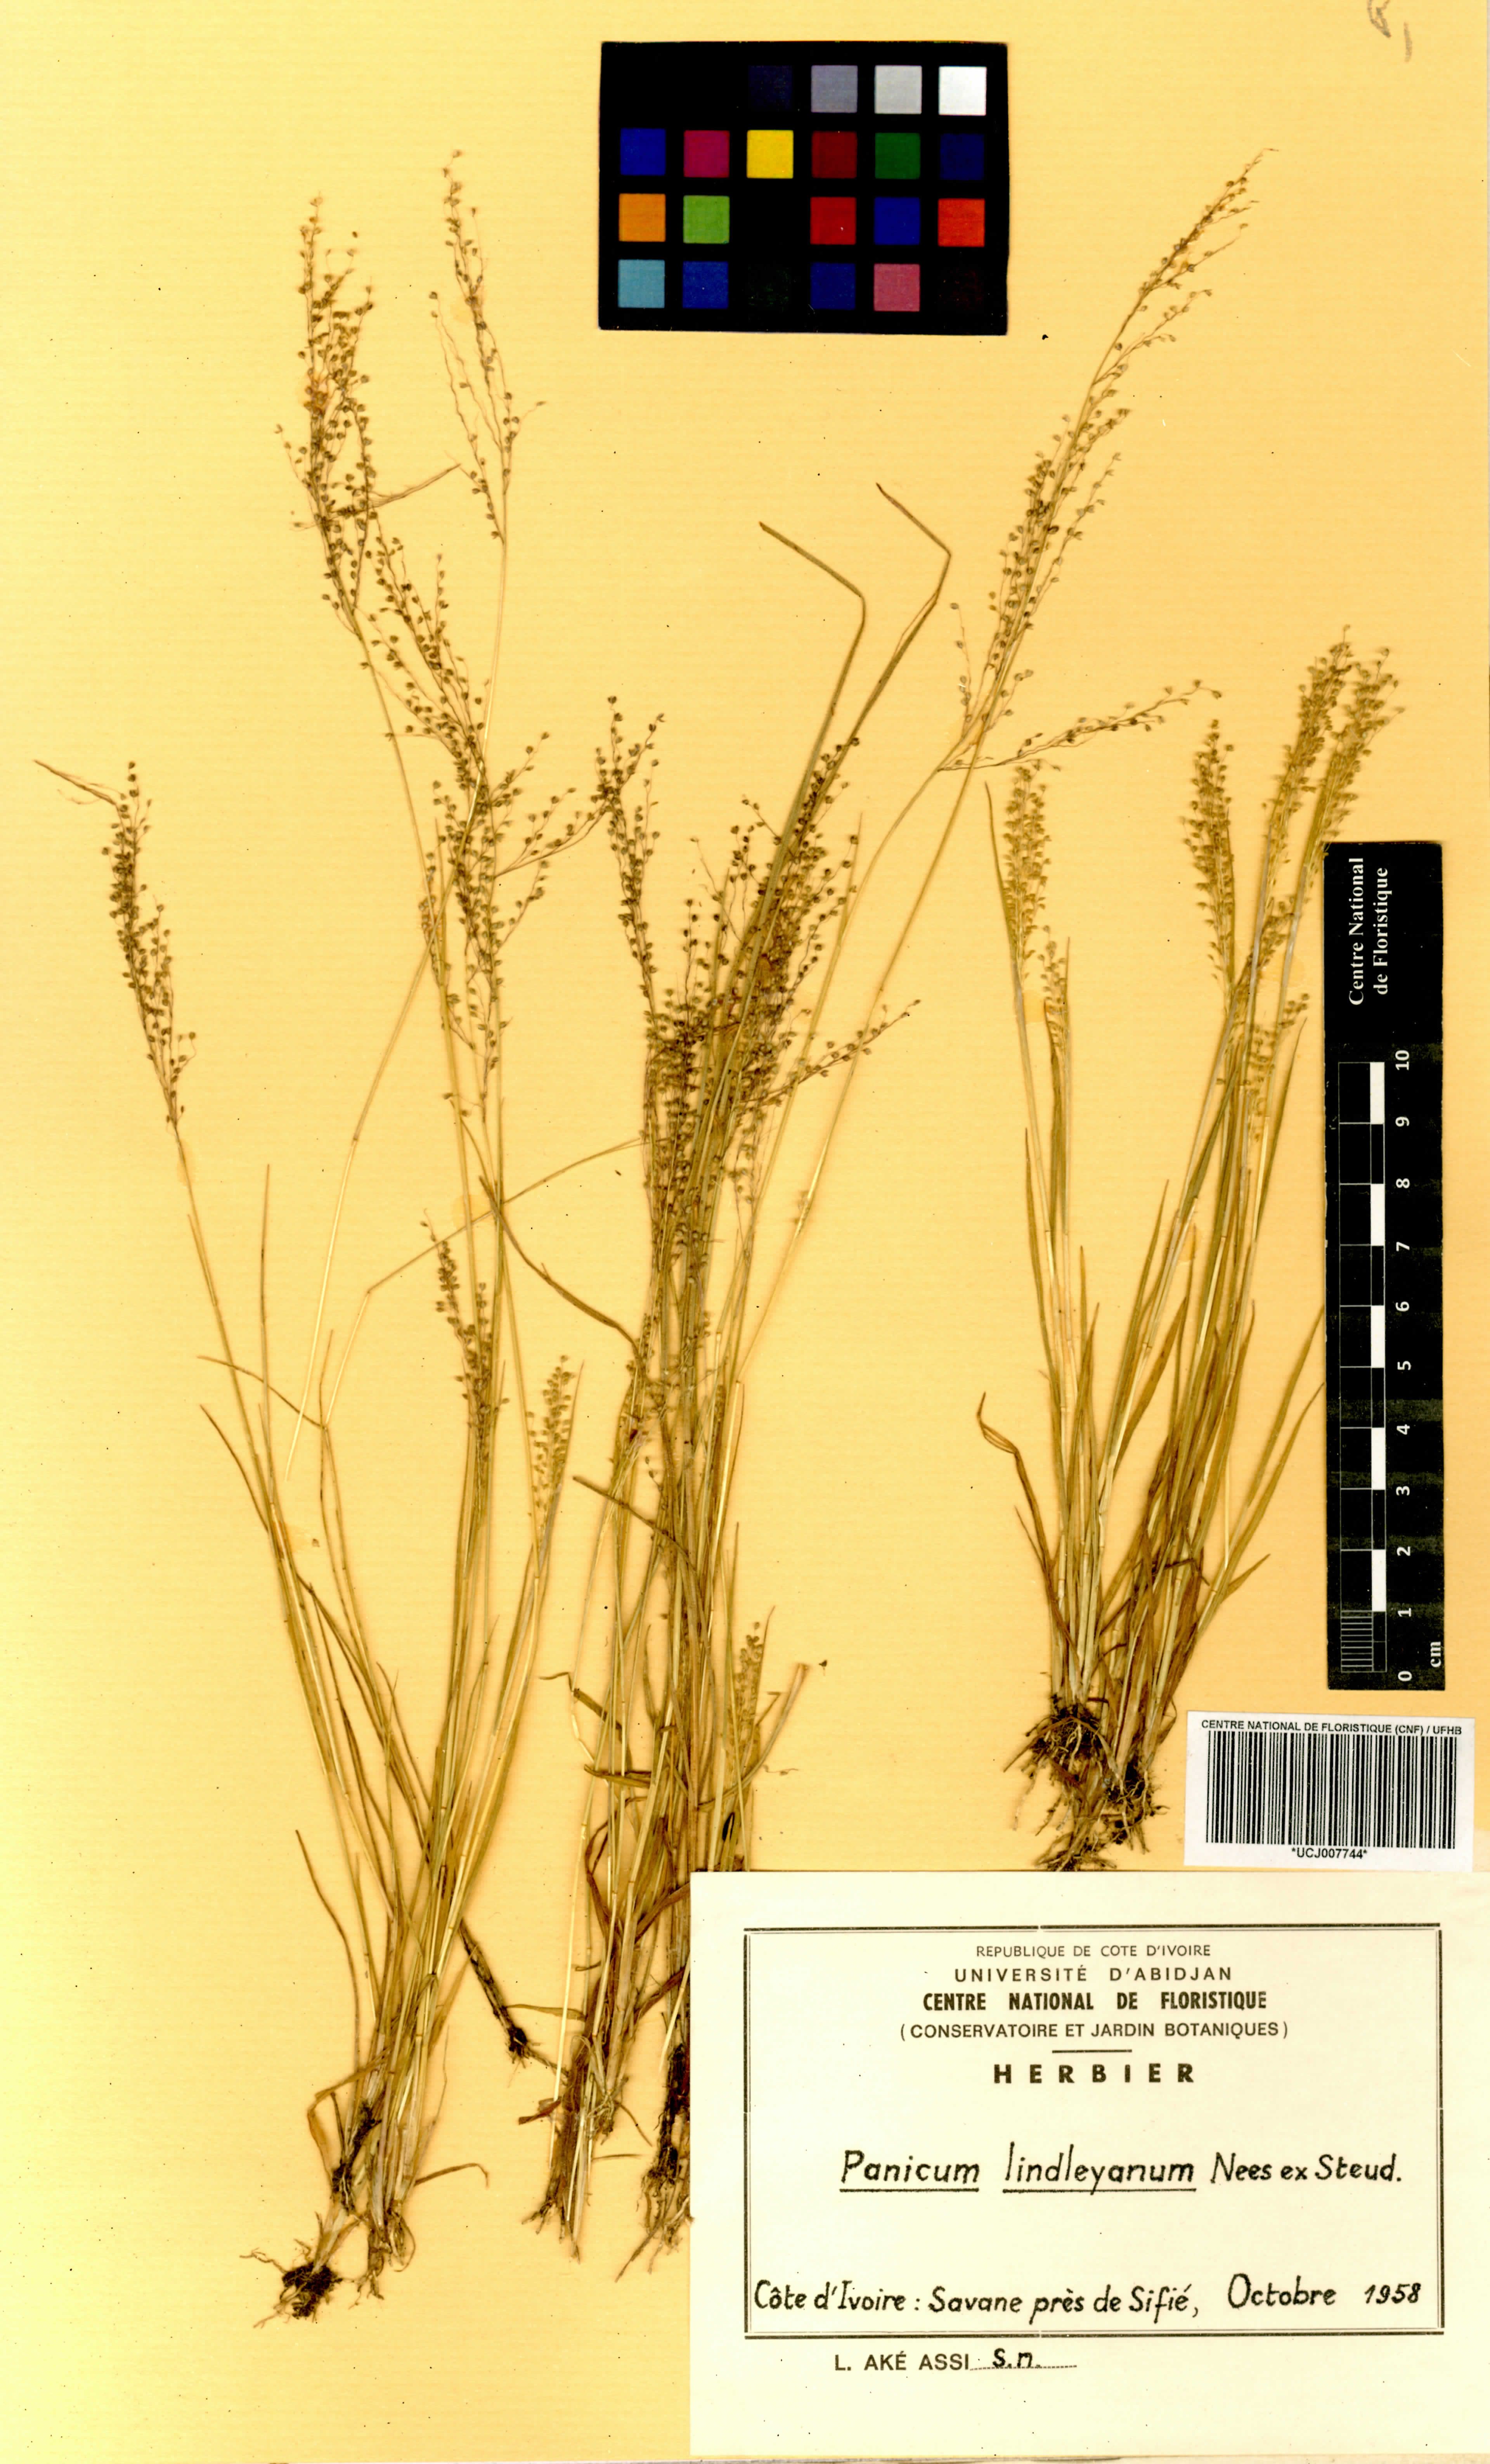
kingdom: Plantae
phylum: Tracheophyta
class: Liliopsida
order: Poales
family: Poaceae
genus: Trichanthecium
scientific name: Trichanthecium tenellum
